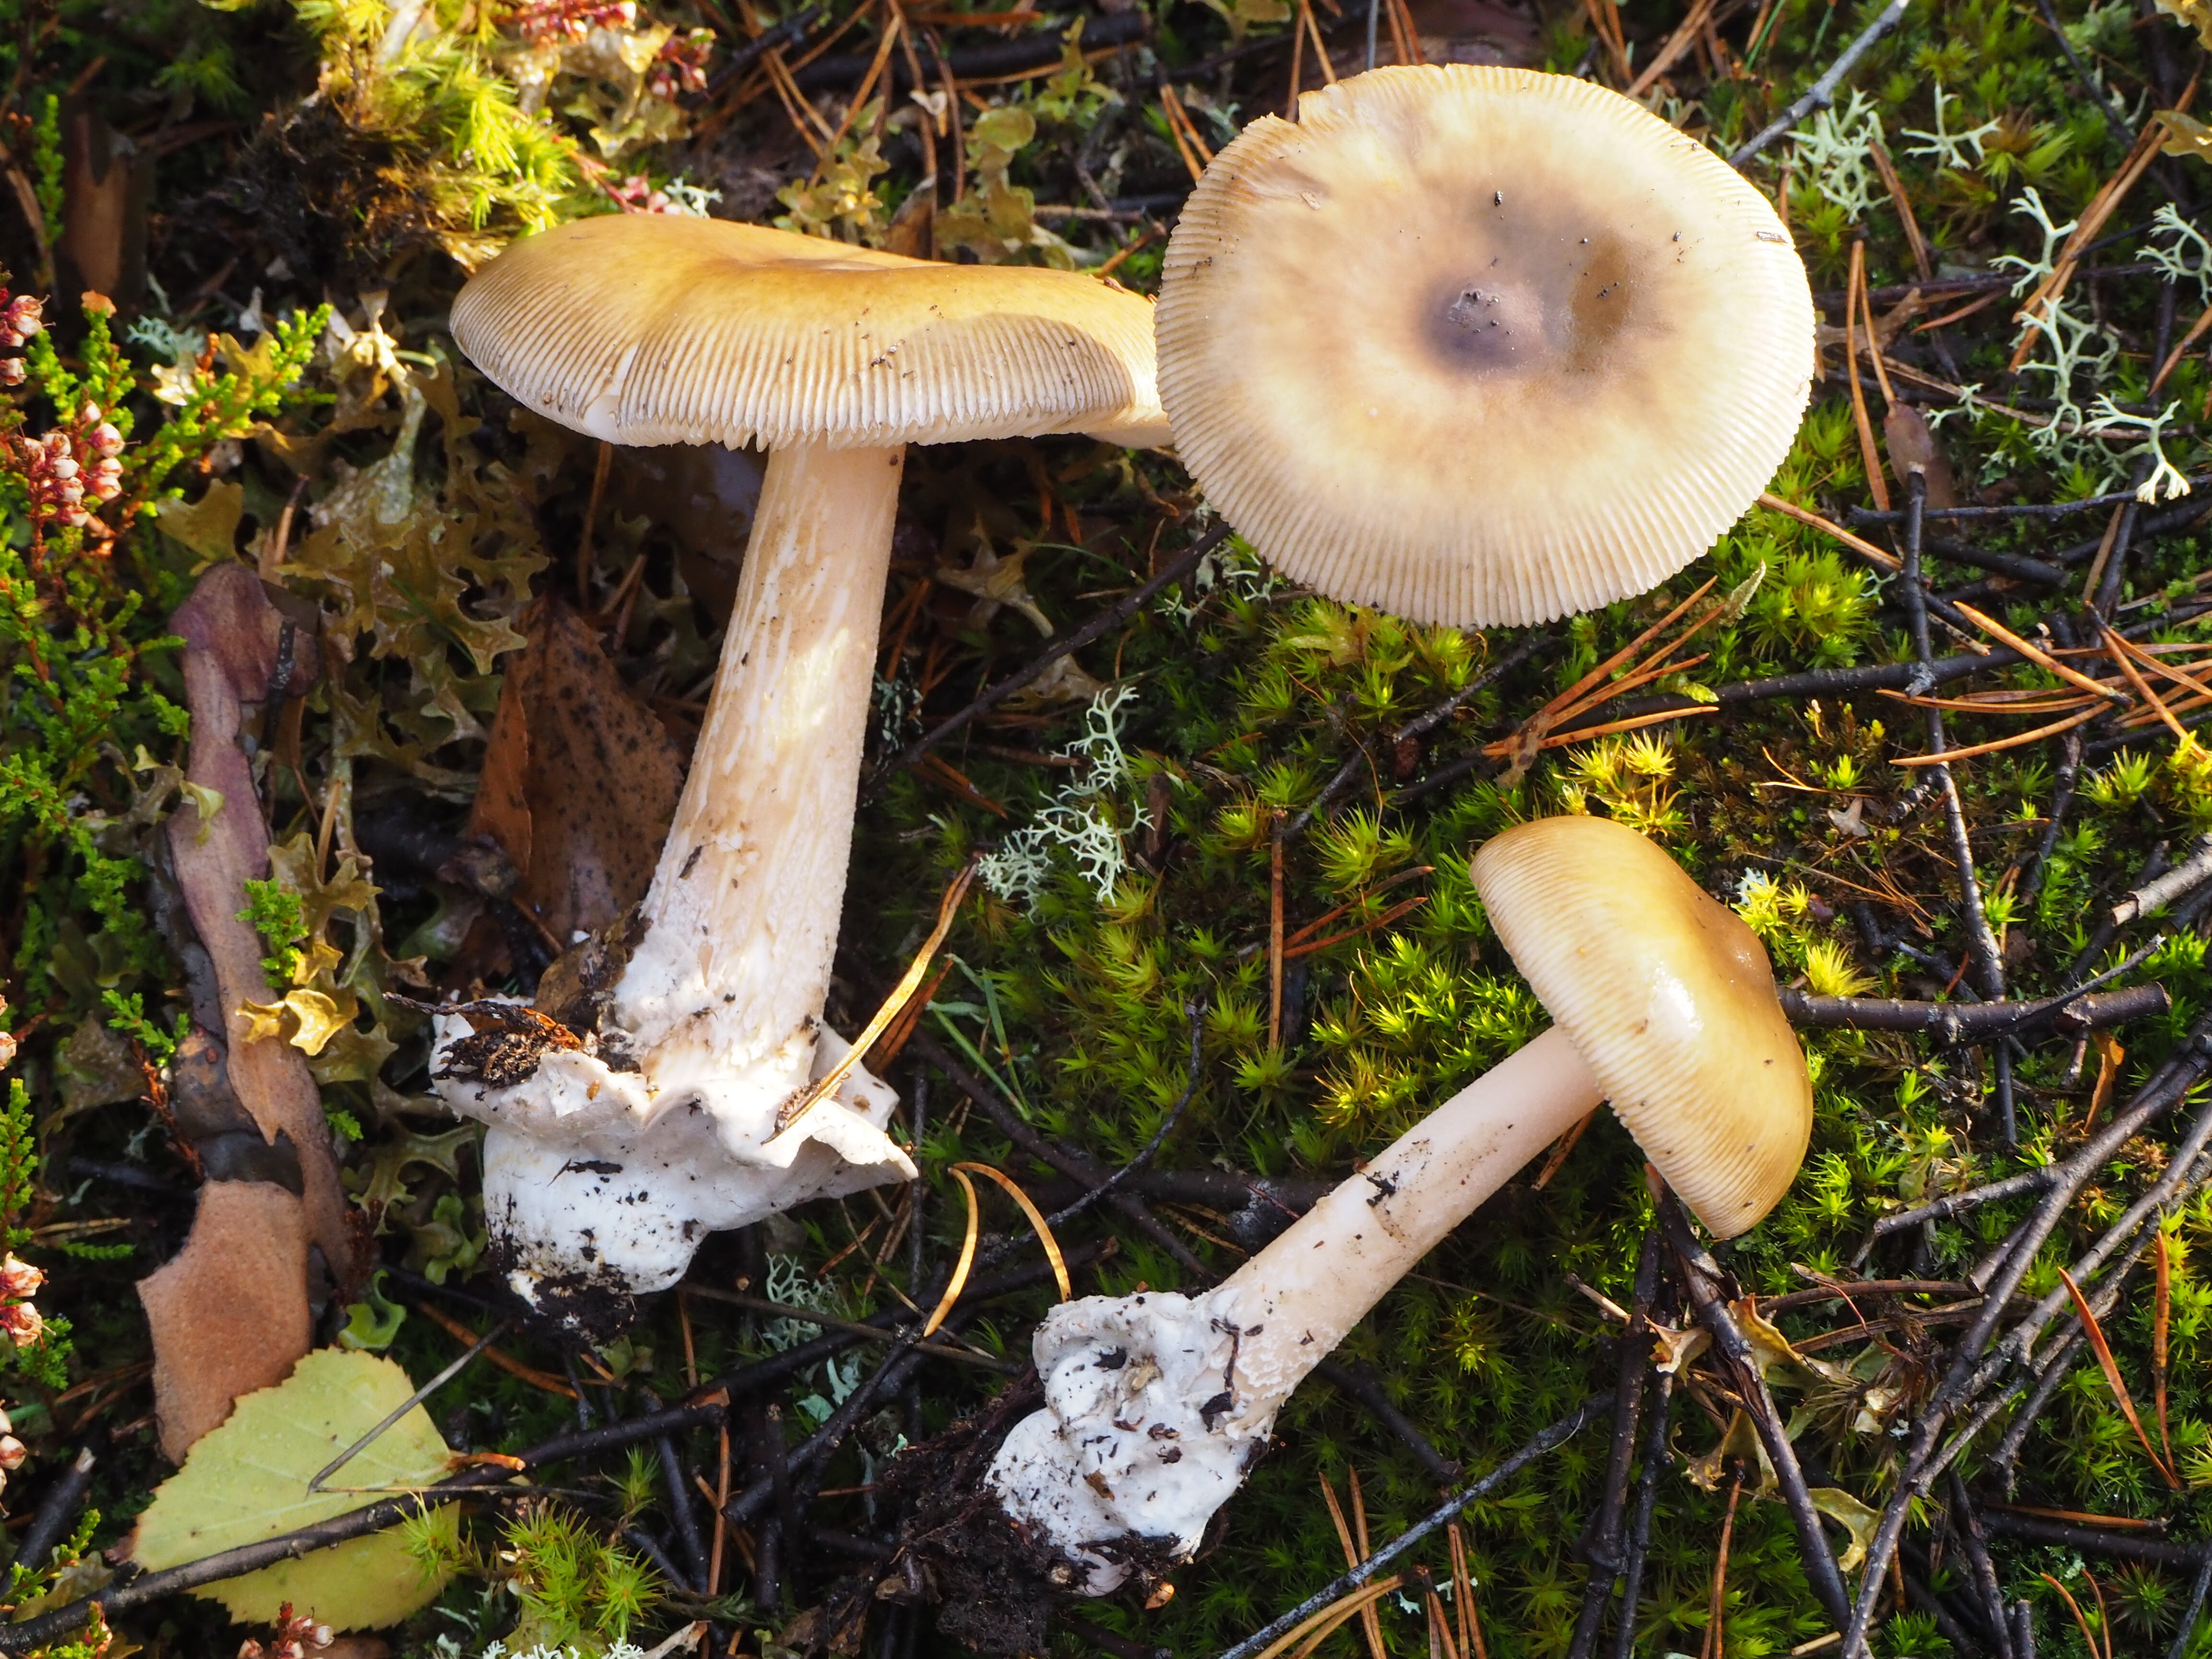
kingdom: Fungi
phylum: Basidiomycota
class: Agaricomycetes
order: Agaricales
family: Amanitaceae
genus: Amanita
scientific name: Amanita submembranacea
